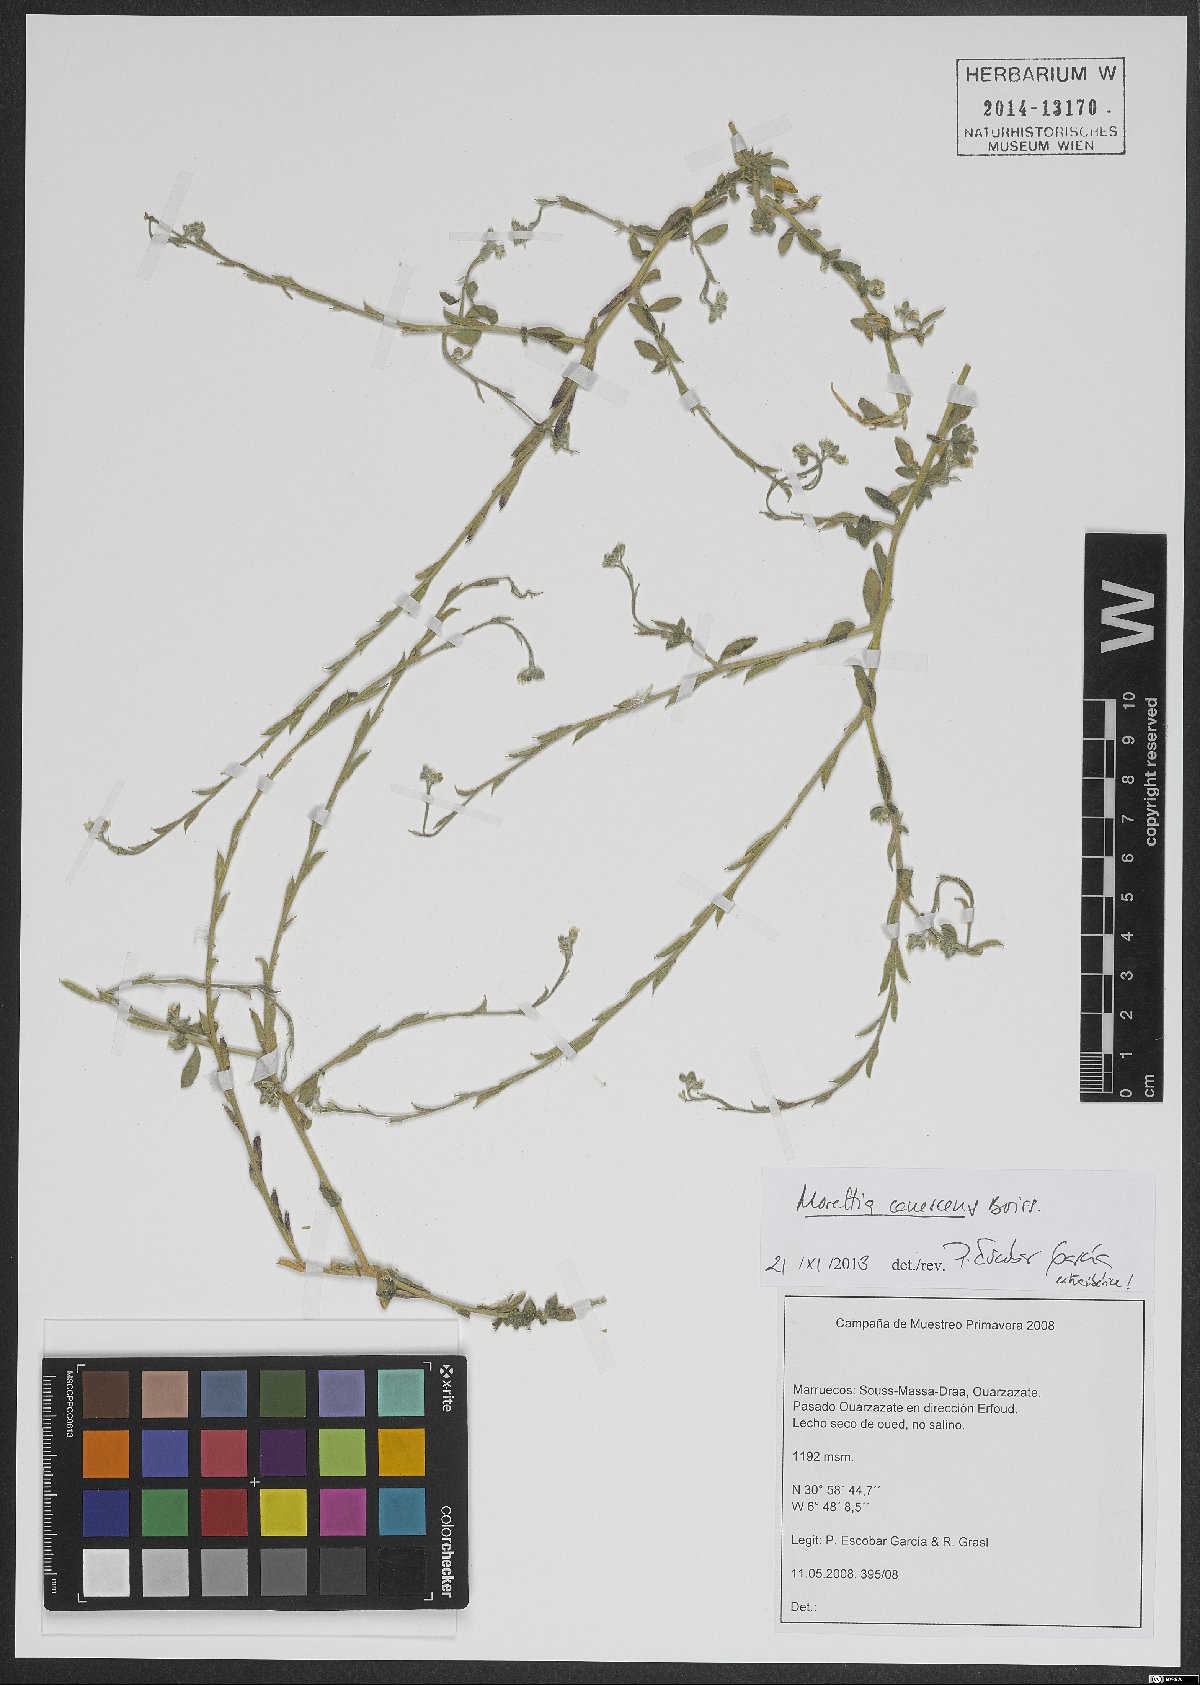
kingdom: Plantae
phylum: Tracheophyta
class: Magnoliopsida
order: Brassicales
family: Brassicaceae
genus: Morettia
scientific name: Morettia canescens
